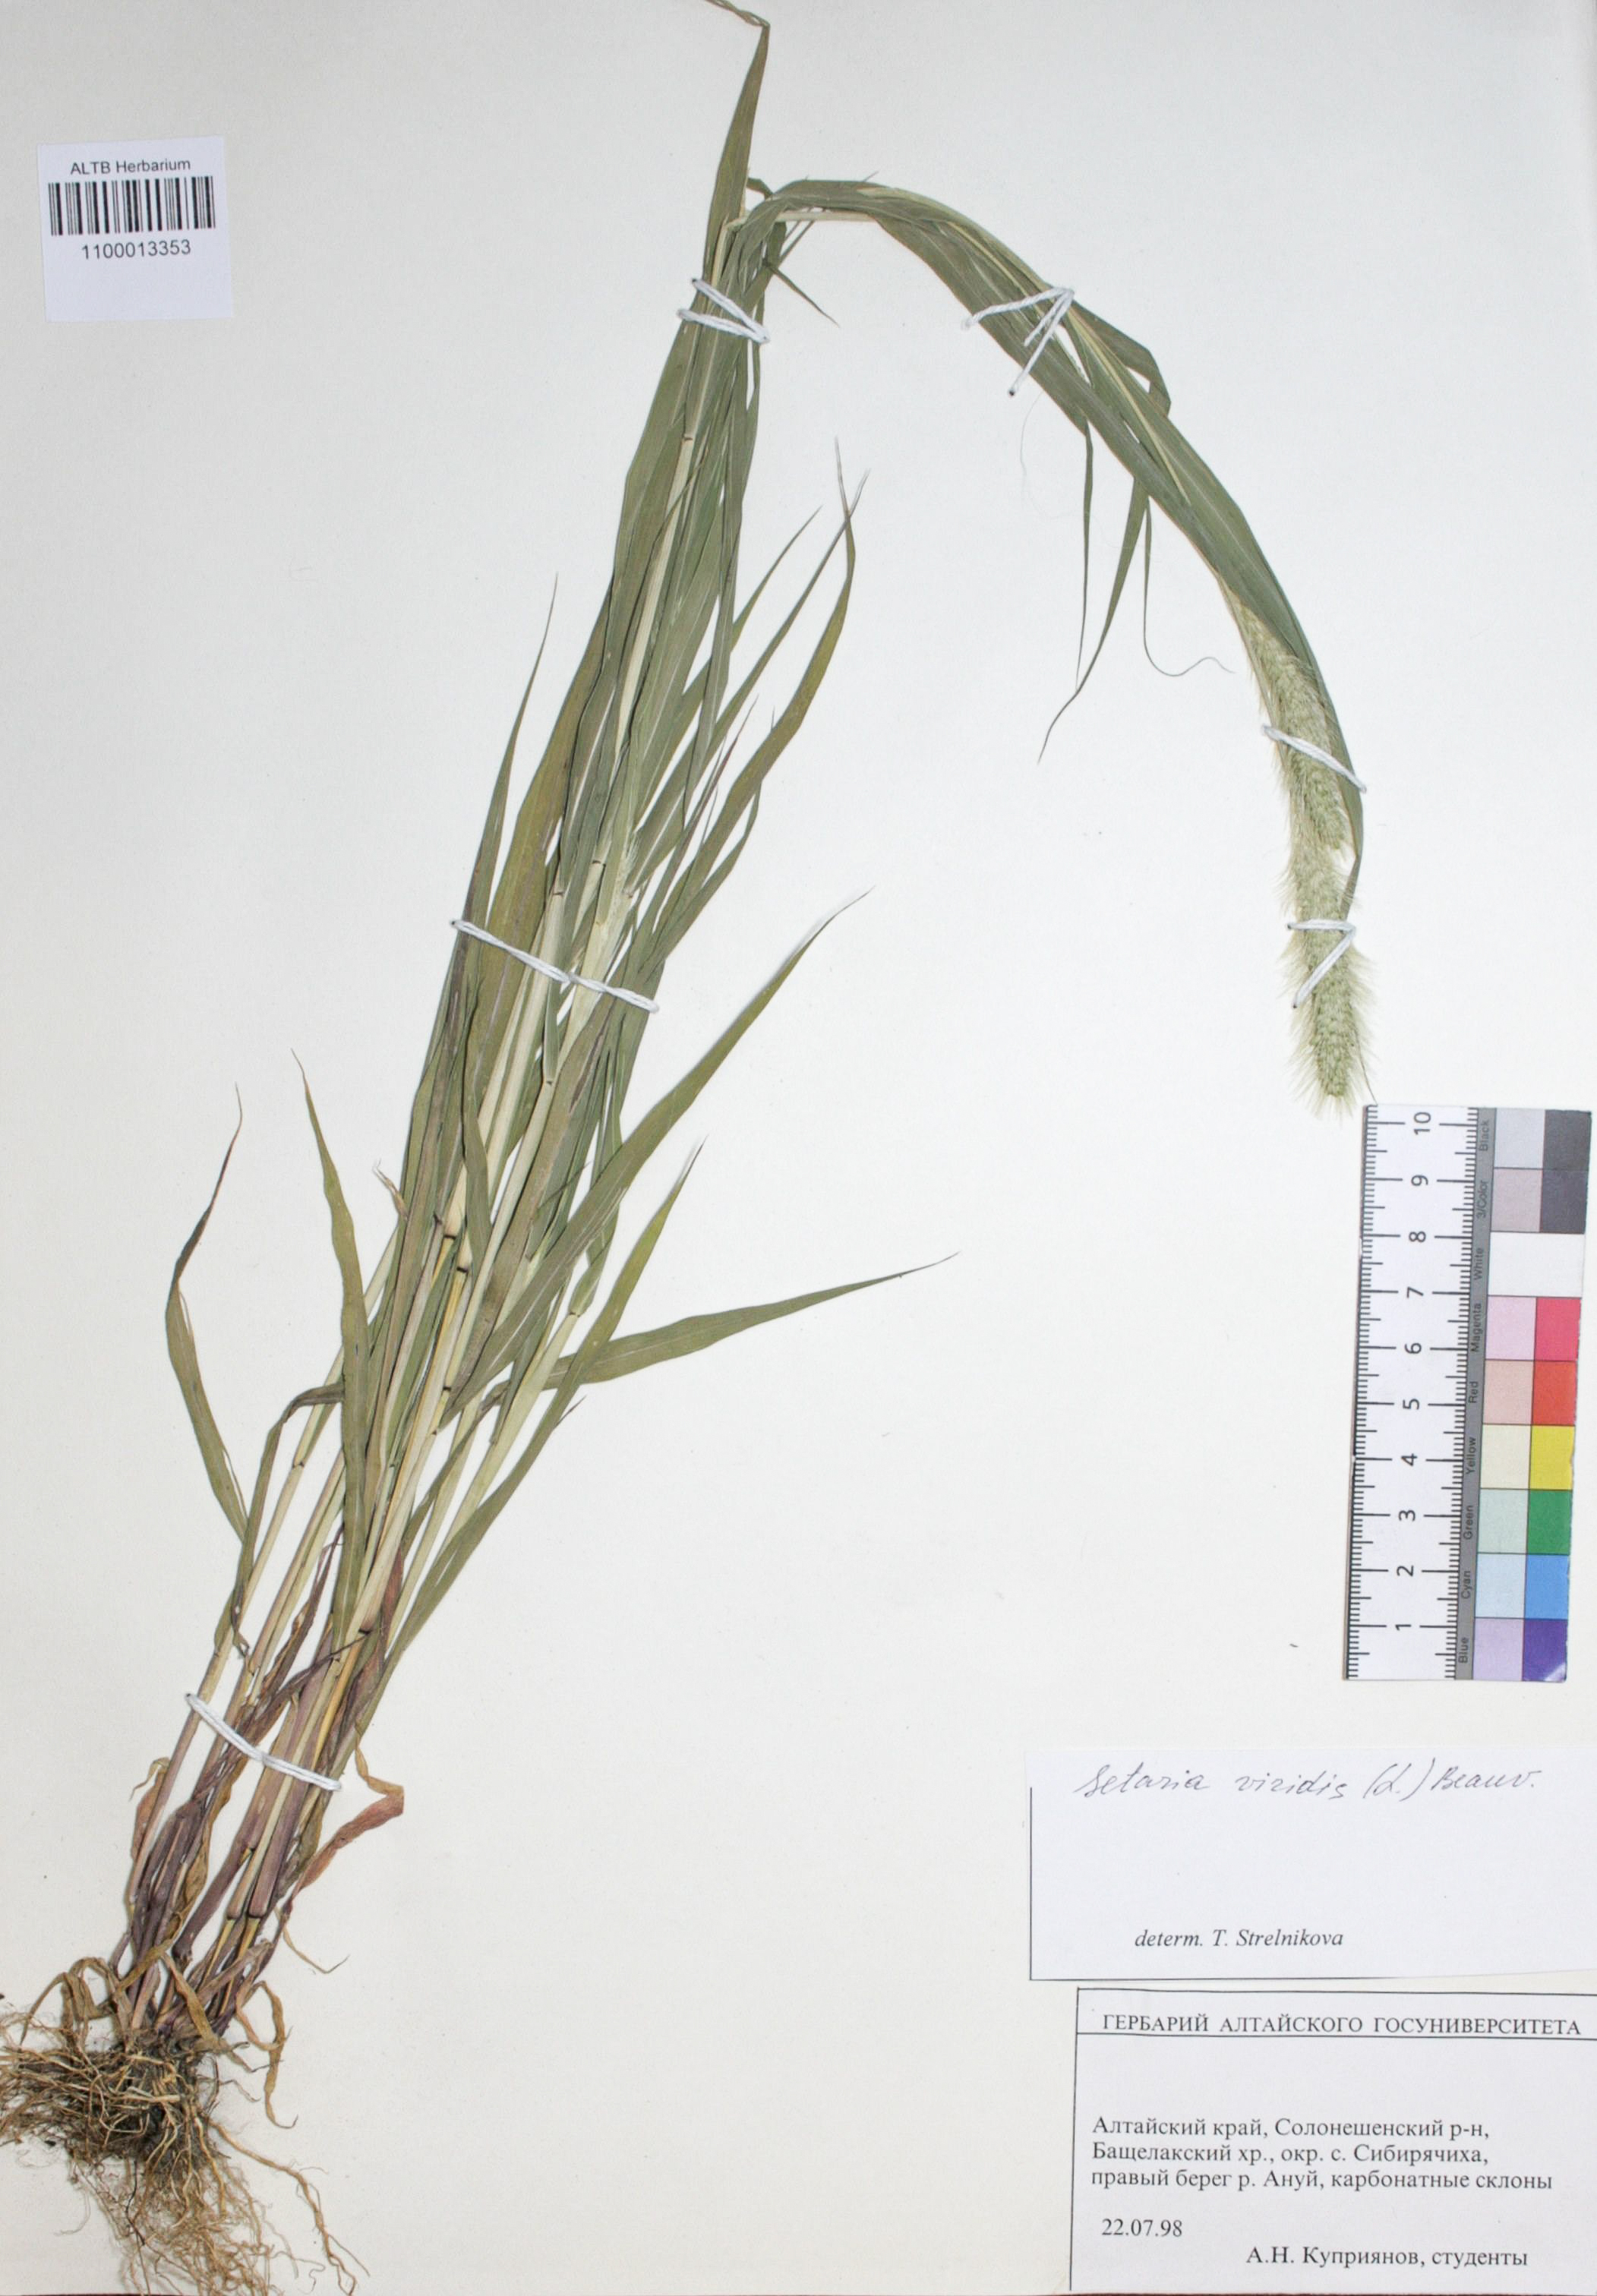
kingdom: Plantae
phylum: Tracheophyta
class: Liliopsida
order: Poales
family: Poaceae
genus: Setaria
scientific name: Setaria viridis
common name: Green bristlegrass
